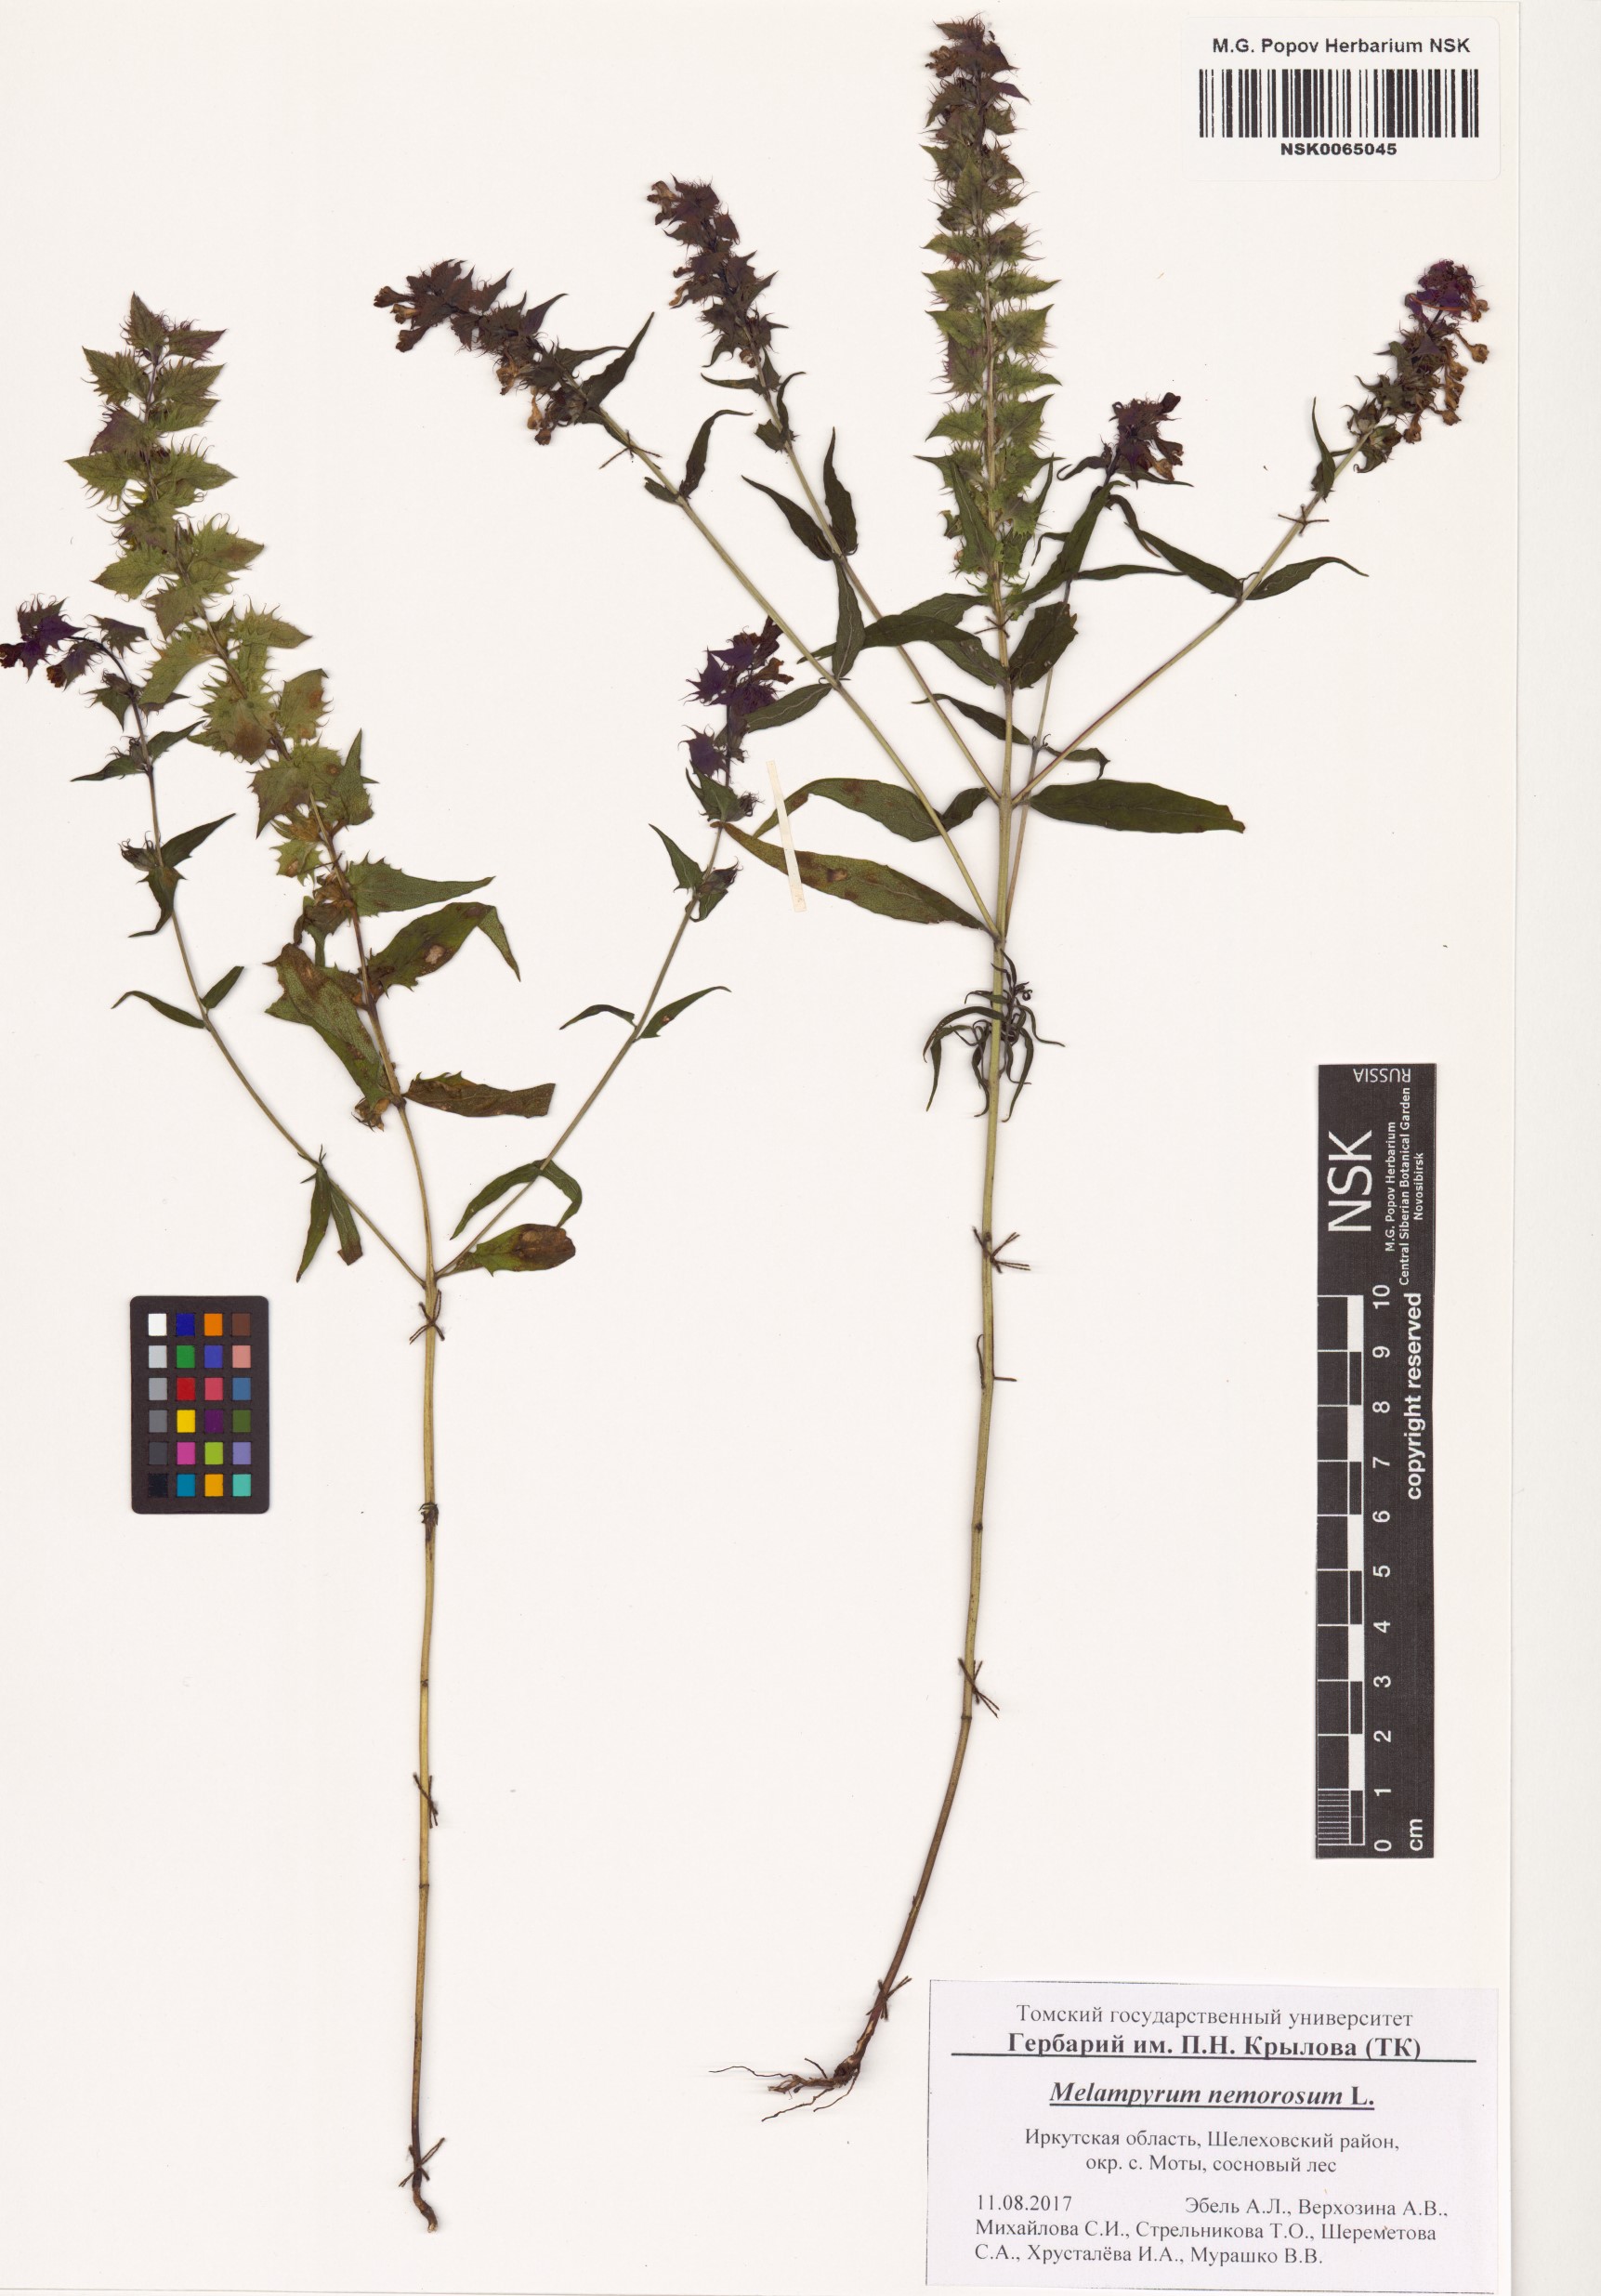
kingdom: Plantae
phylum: Tracheophyta
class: Magnoliopsida
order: Lamiales
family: Orobanchaceae
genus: Melampyrum
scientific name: Melampyrum nemorosum
